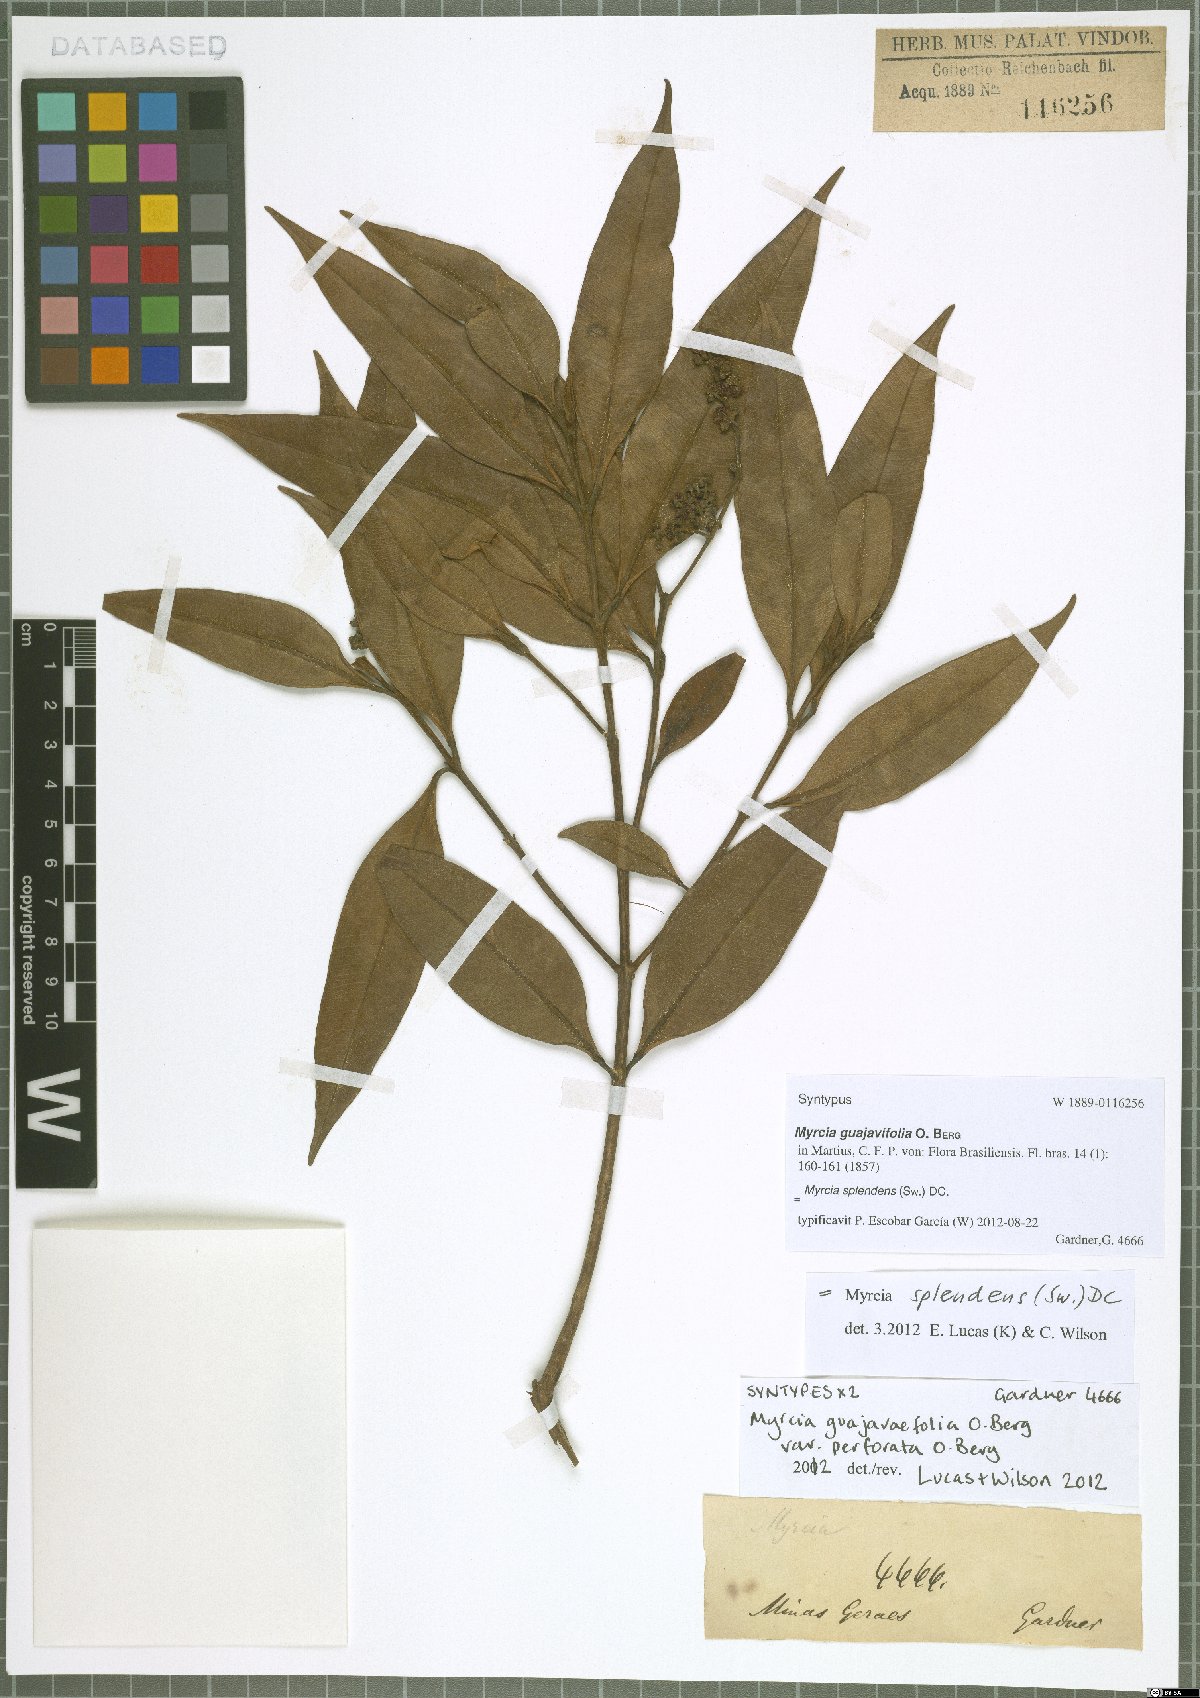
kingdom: Plantae
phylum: Tracheophyta
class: Magnoliopsida
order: Myrtales
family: Myrtaceae
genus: Myrcia
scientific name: Myrcia splendens
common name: Surinam cherry
